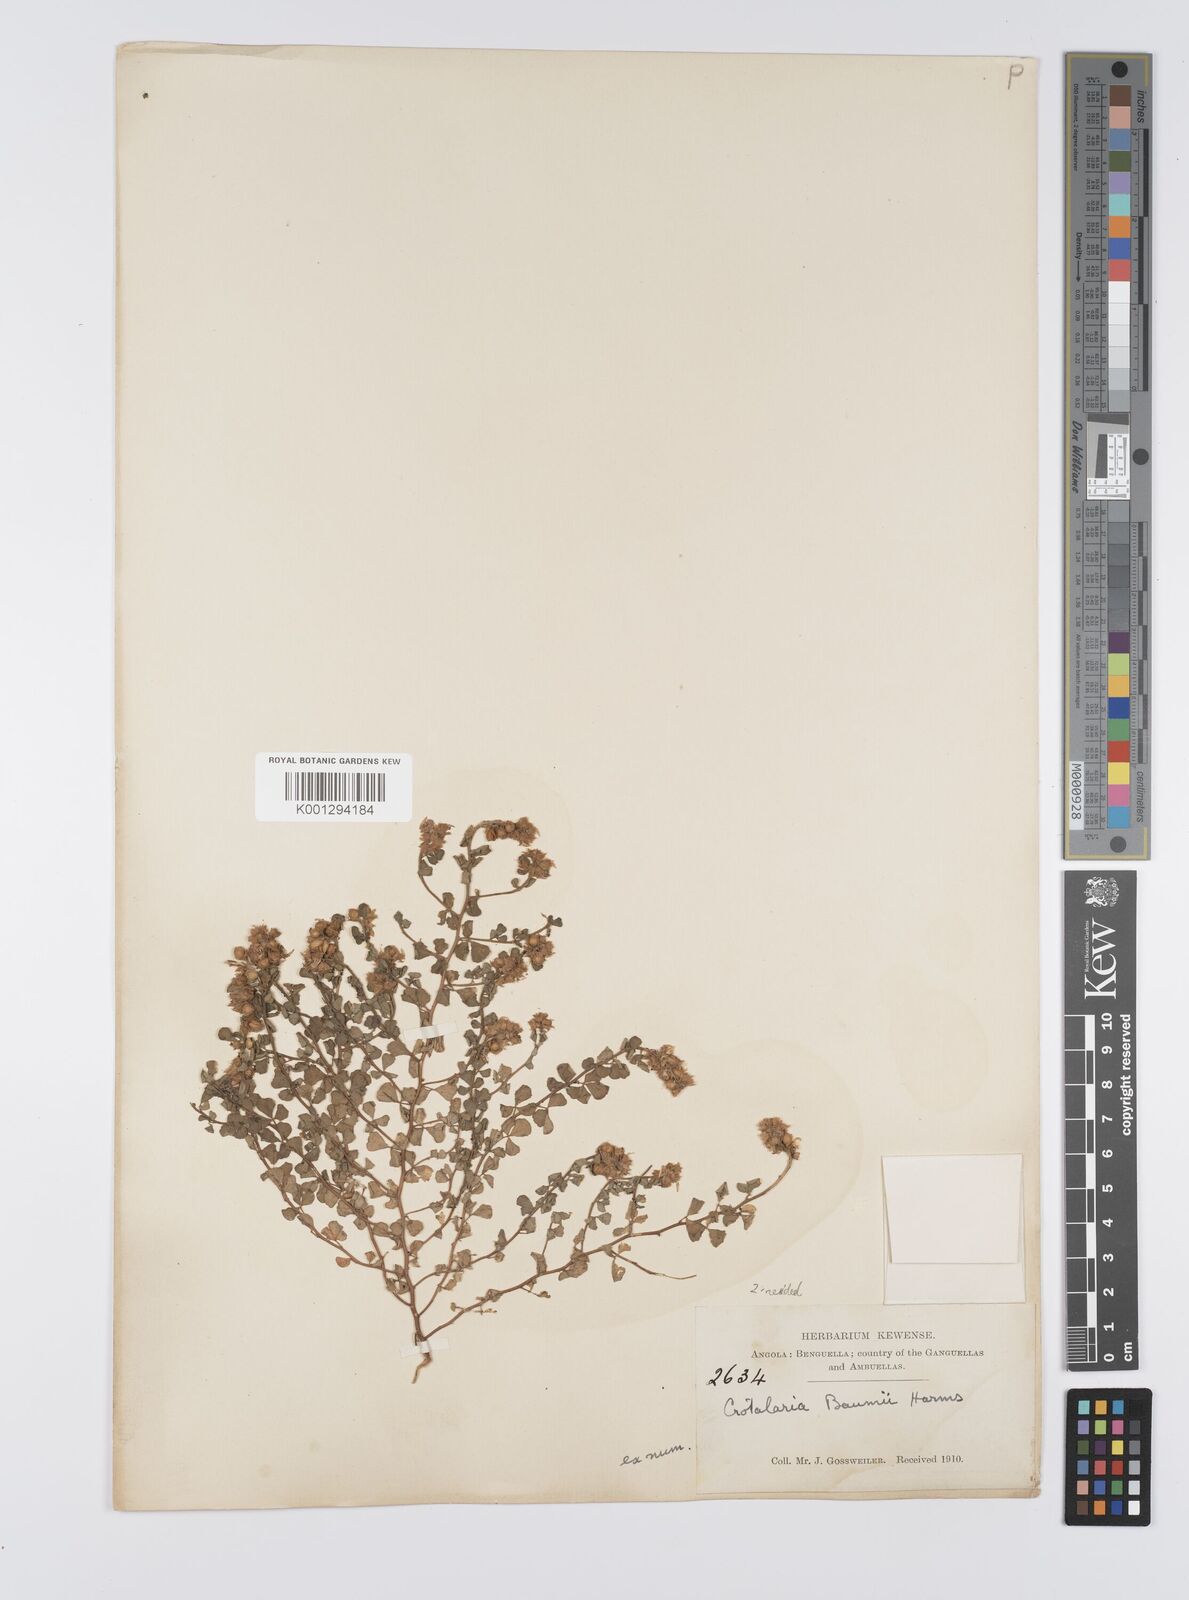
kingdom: Plantae
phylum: Tracheophyta
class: Magnoliopsida
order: Fabales
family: Fabaceae
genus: Crotalaria
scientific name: Crotalaria baumii
